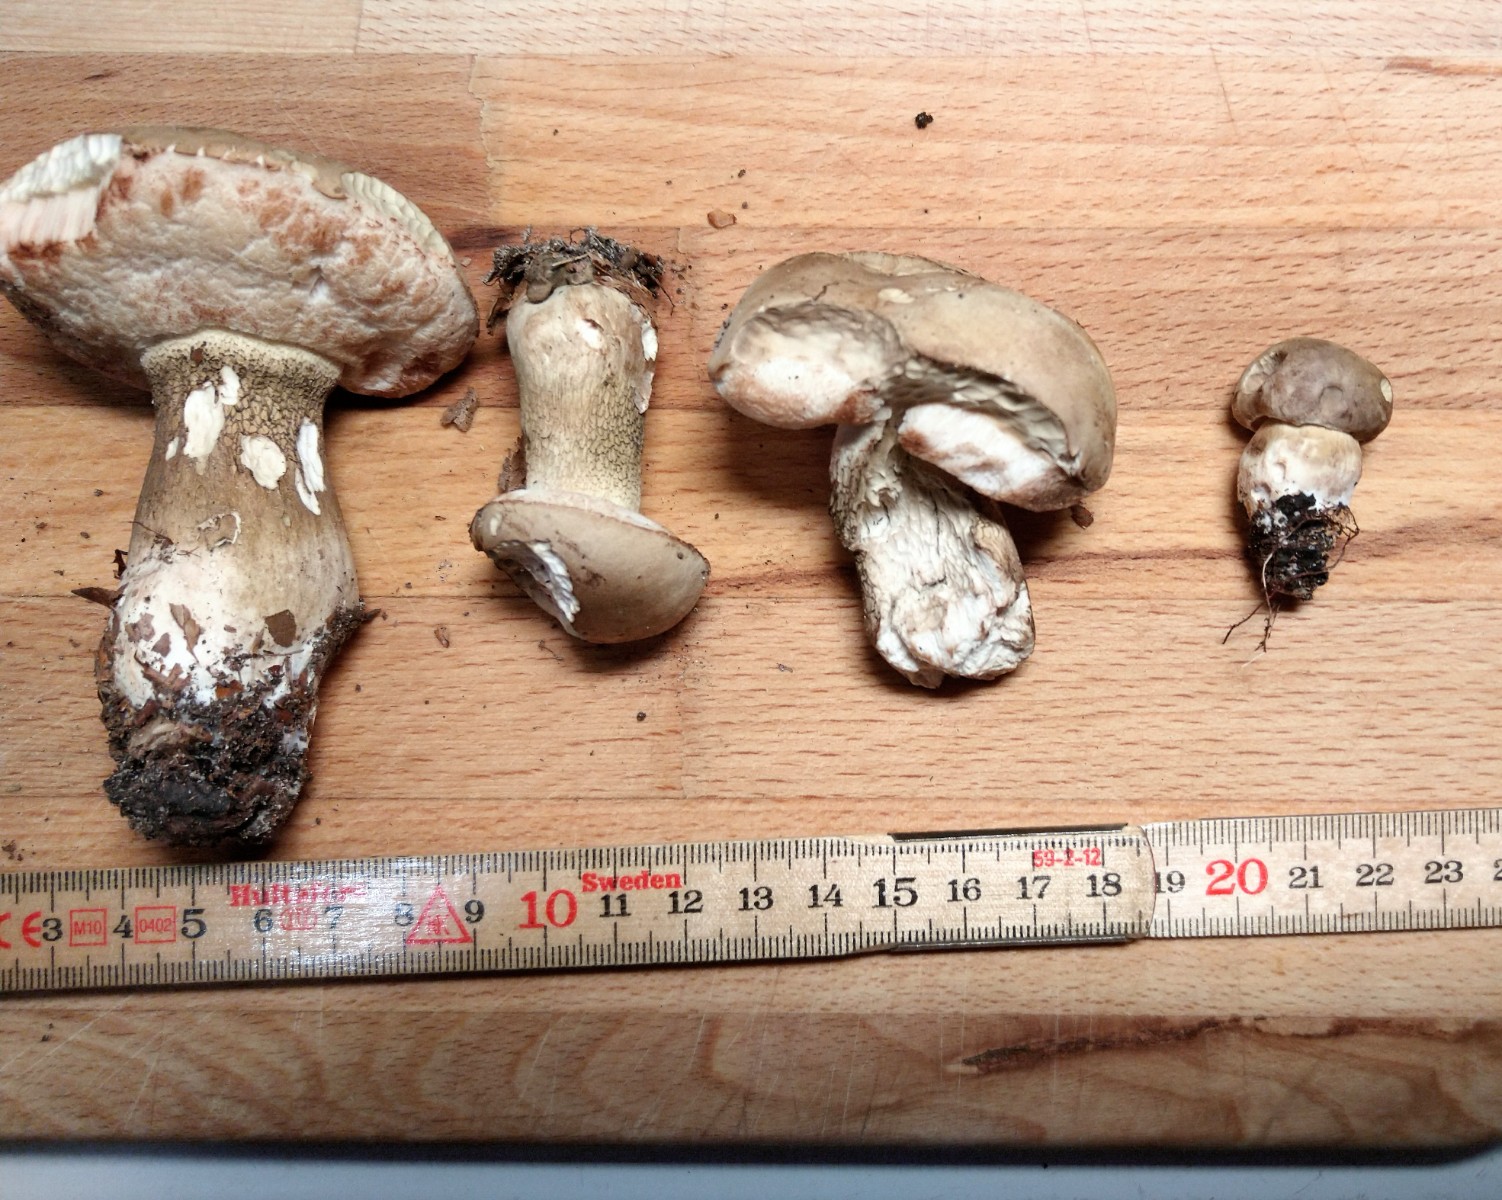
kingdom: Fungi
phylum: Basidiomycota
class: Agaricomycetes
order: Boletales
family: Boletaceae
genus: Tylopilus
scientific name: Tylopilus felleus
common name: galderørhat
